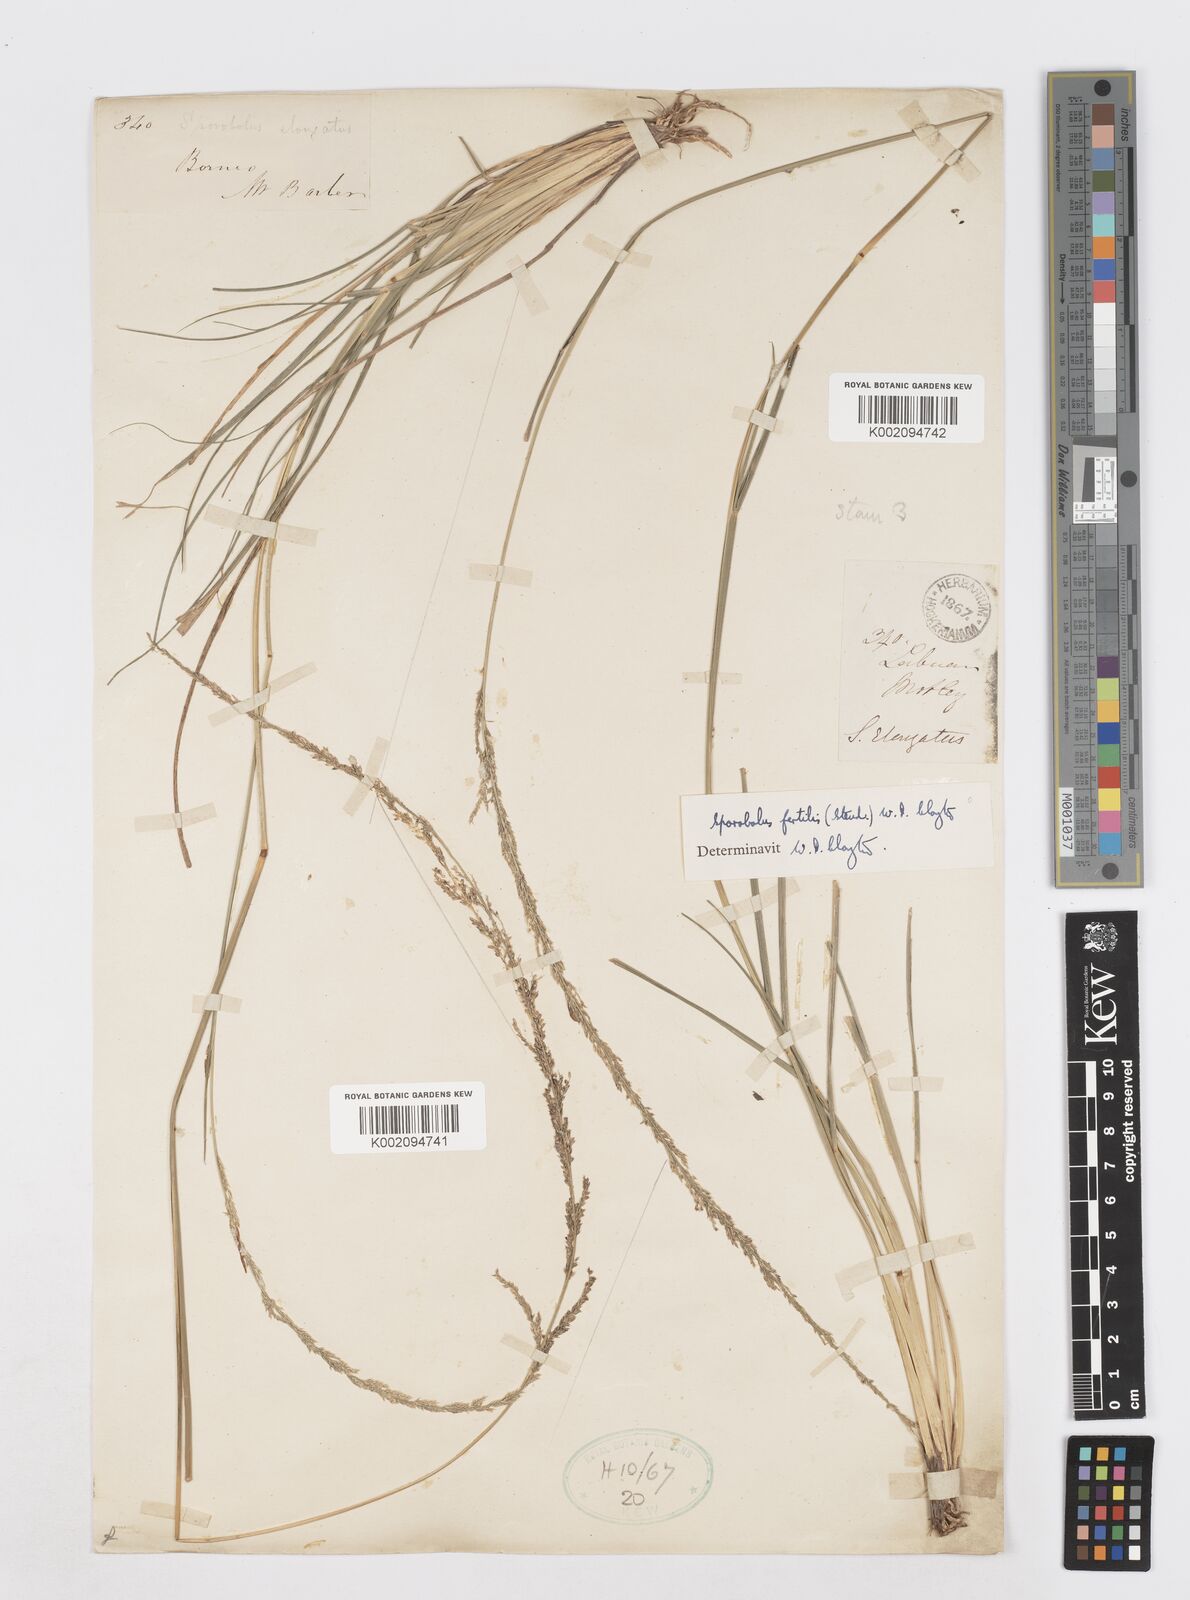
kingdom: Plantae
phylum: Tracheophyta
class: Liliopsida
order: Poales
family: Poaceae
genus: Sporobolus
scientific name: Sporobolus fertilis
